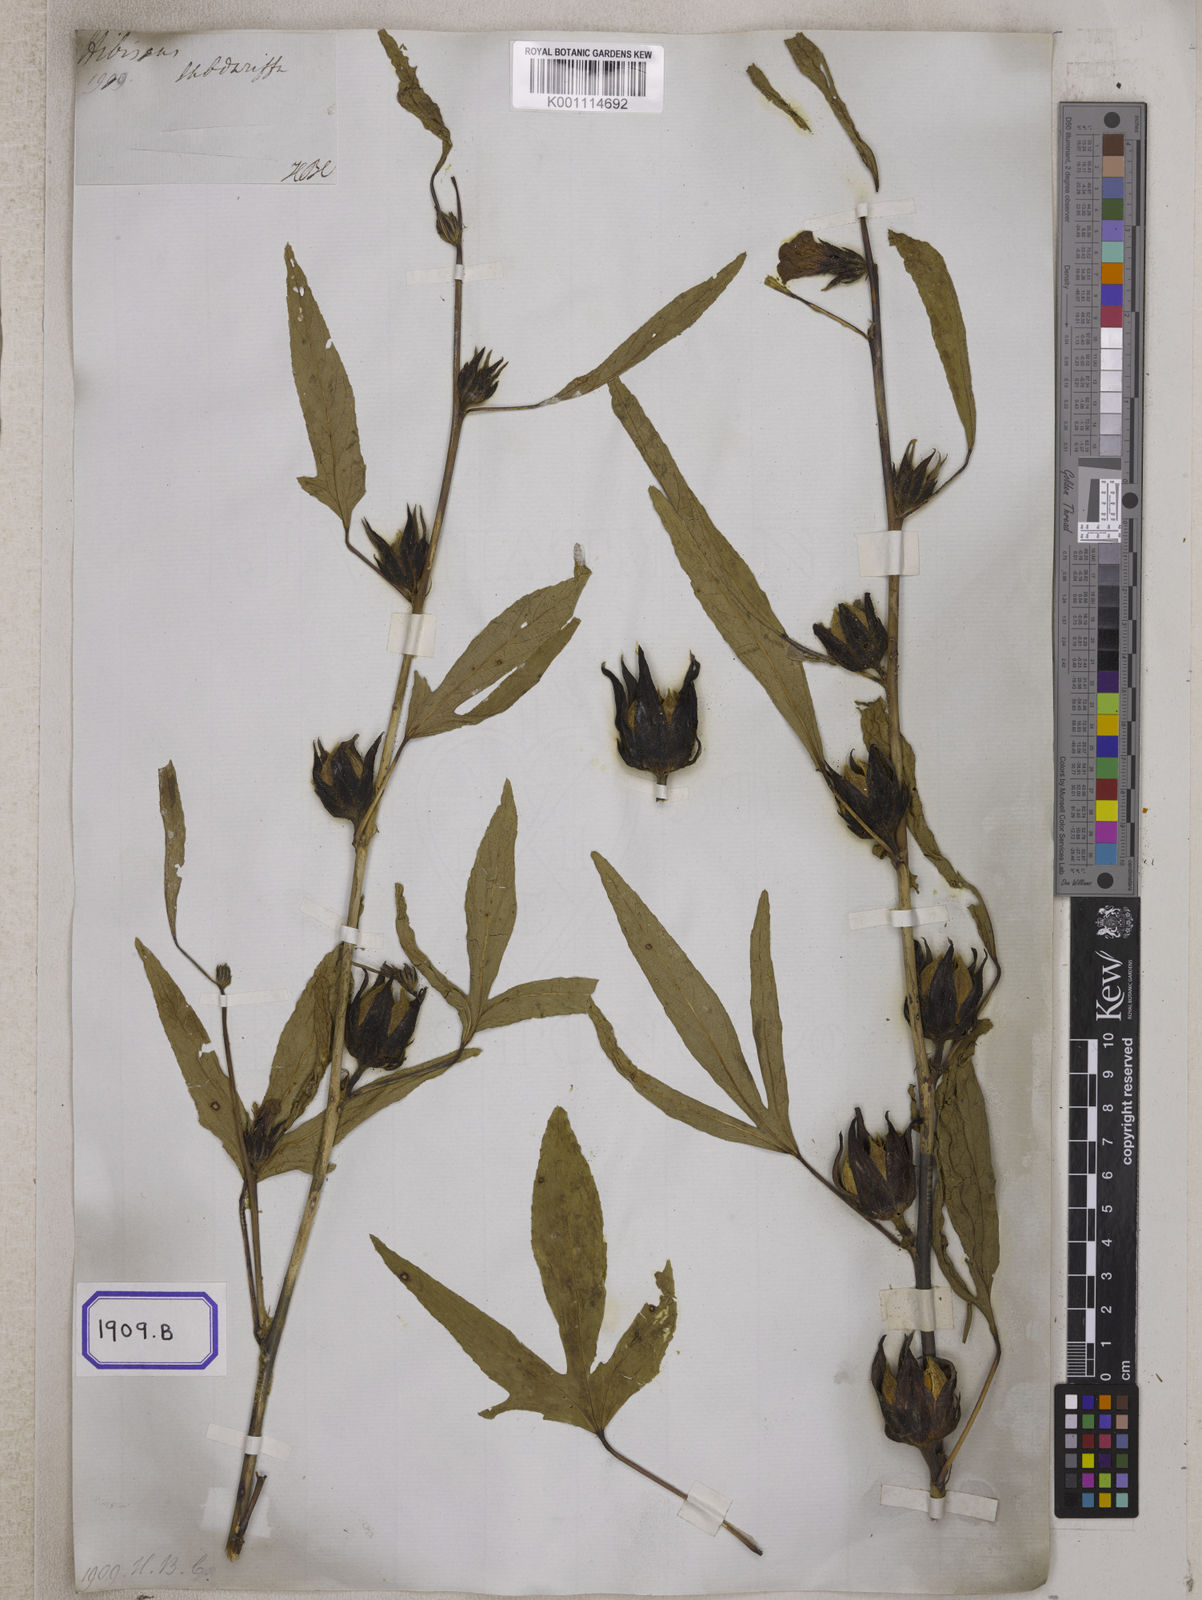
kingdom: Plantae
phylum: Tracheophyta
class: Magnoliopsida
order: Malvales
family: Malvaceae
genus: Hibiscus
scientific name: Hibiscus sabdariffa
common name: Roselle
